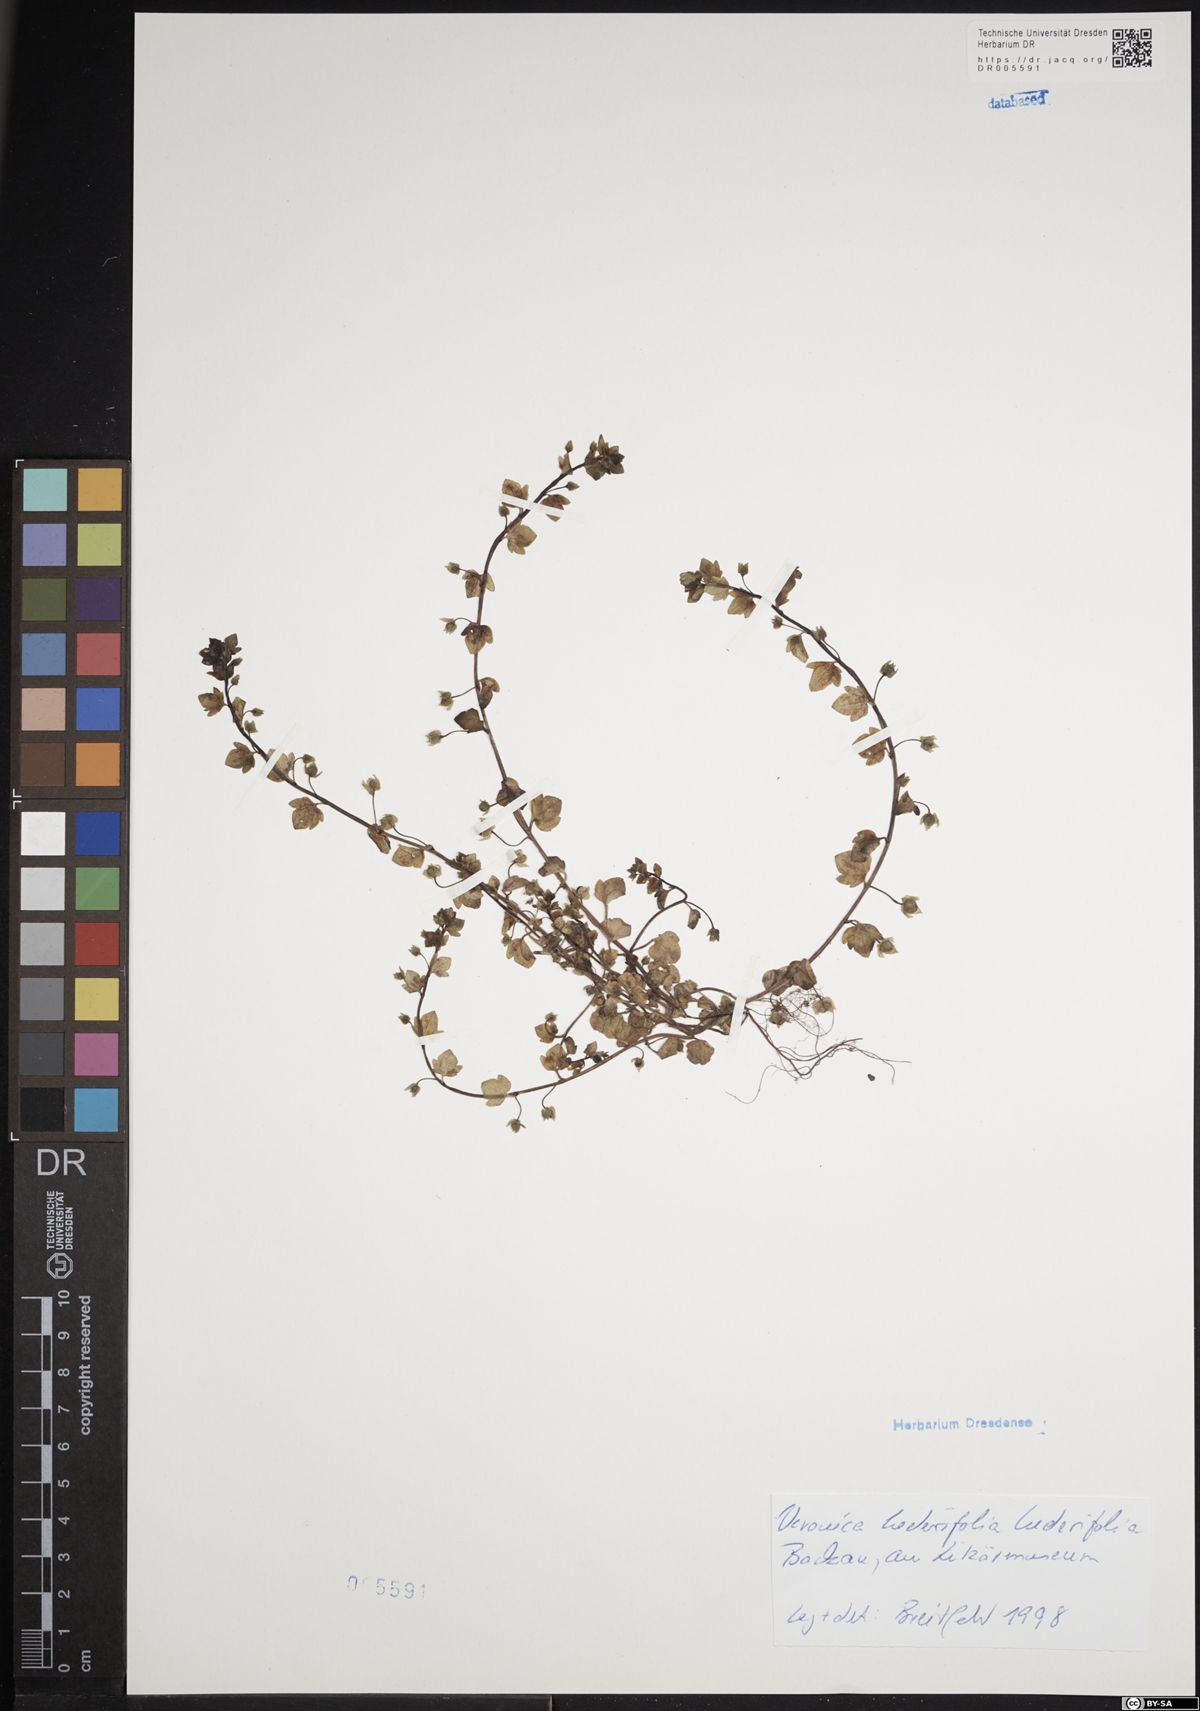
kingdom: Plantae
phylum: Tracheophyta
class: Magnoliopsida
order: Lamiales
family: Plantaginaceae
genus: Veronica
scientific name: Veronica hederifolia
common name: Ivy-leaved speedwell
